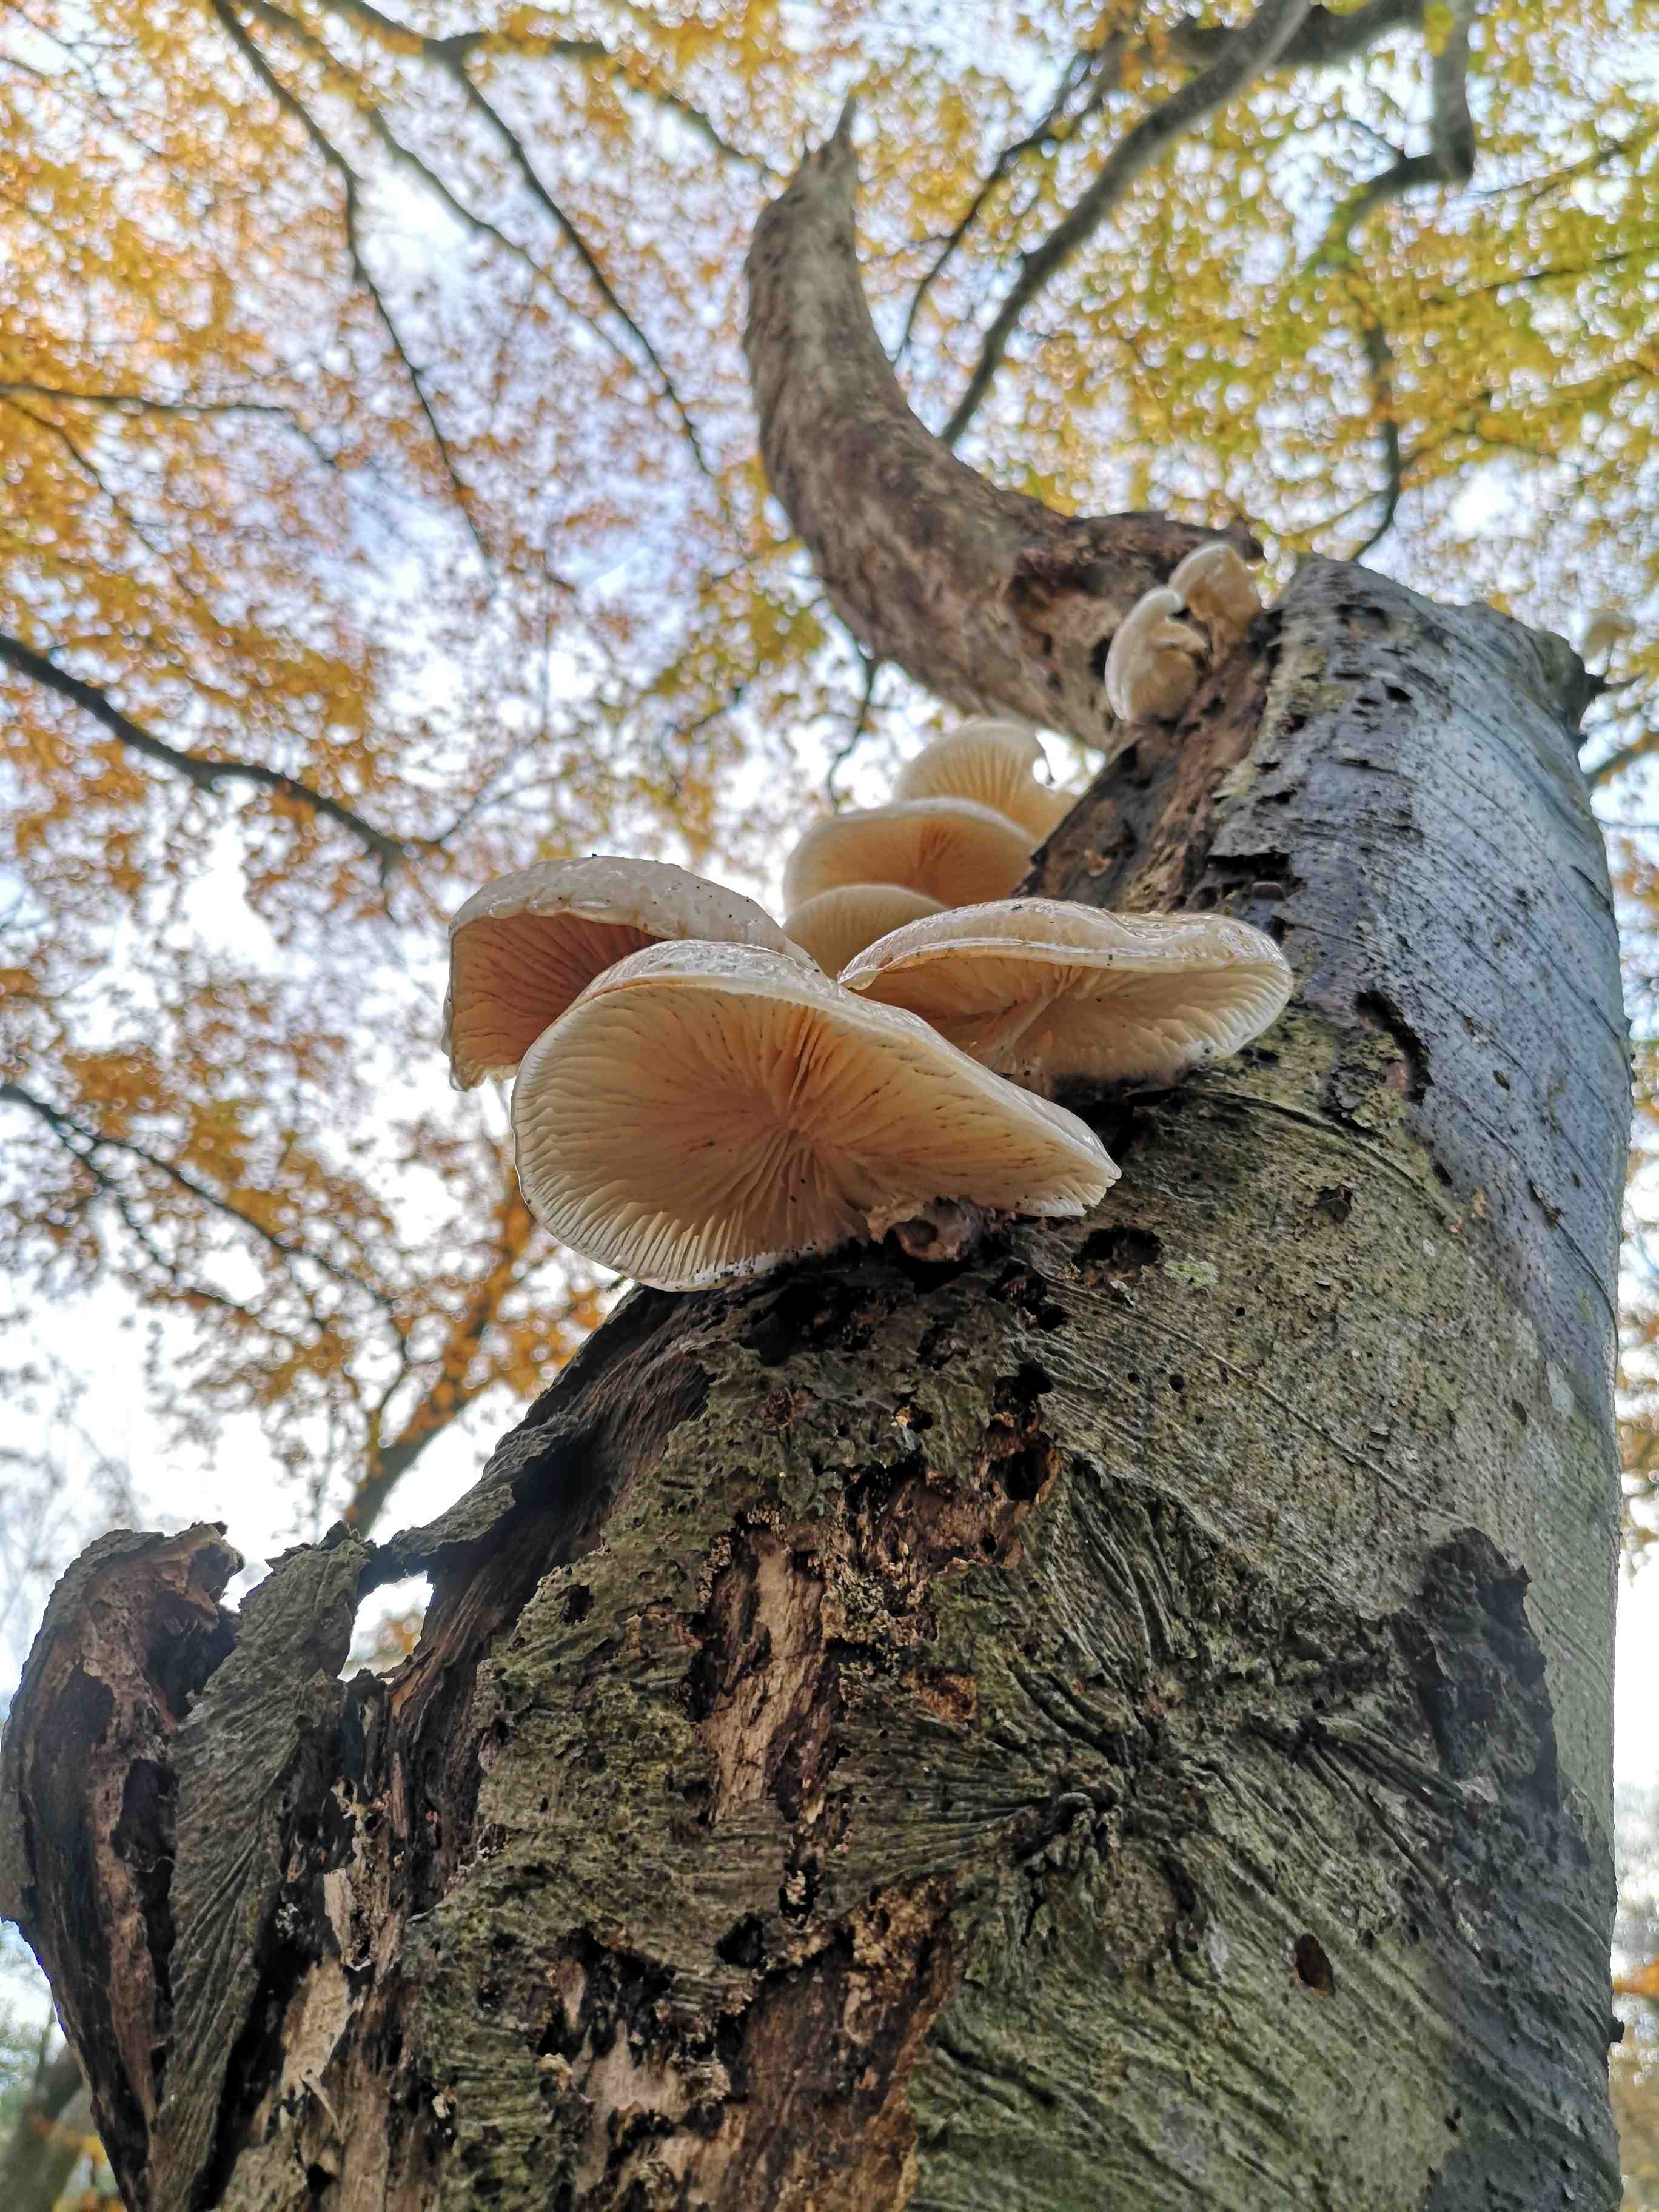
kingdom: Fungi
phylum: Basidiomycota
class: Agaricomycetes
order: Agaricales
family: Physalacriaceae
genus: Mucidula
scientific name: Mucidula mucida
